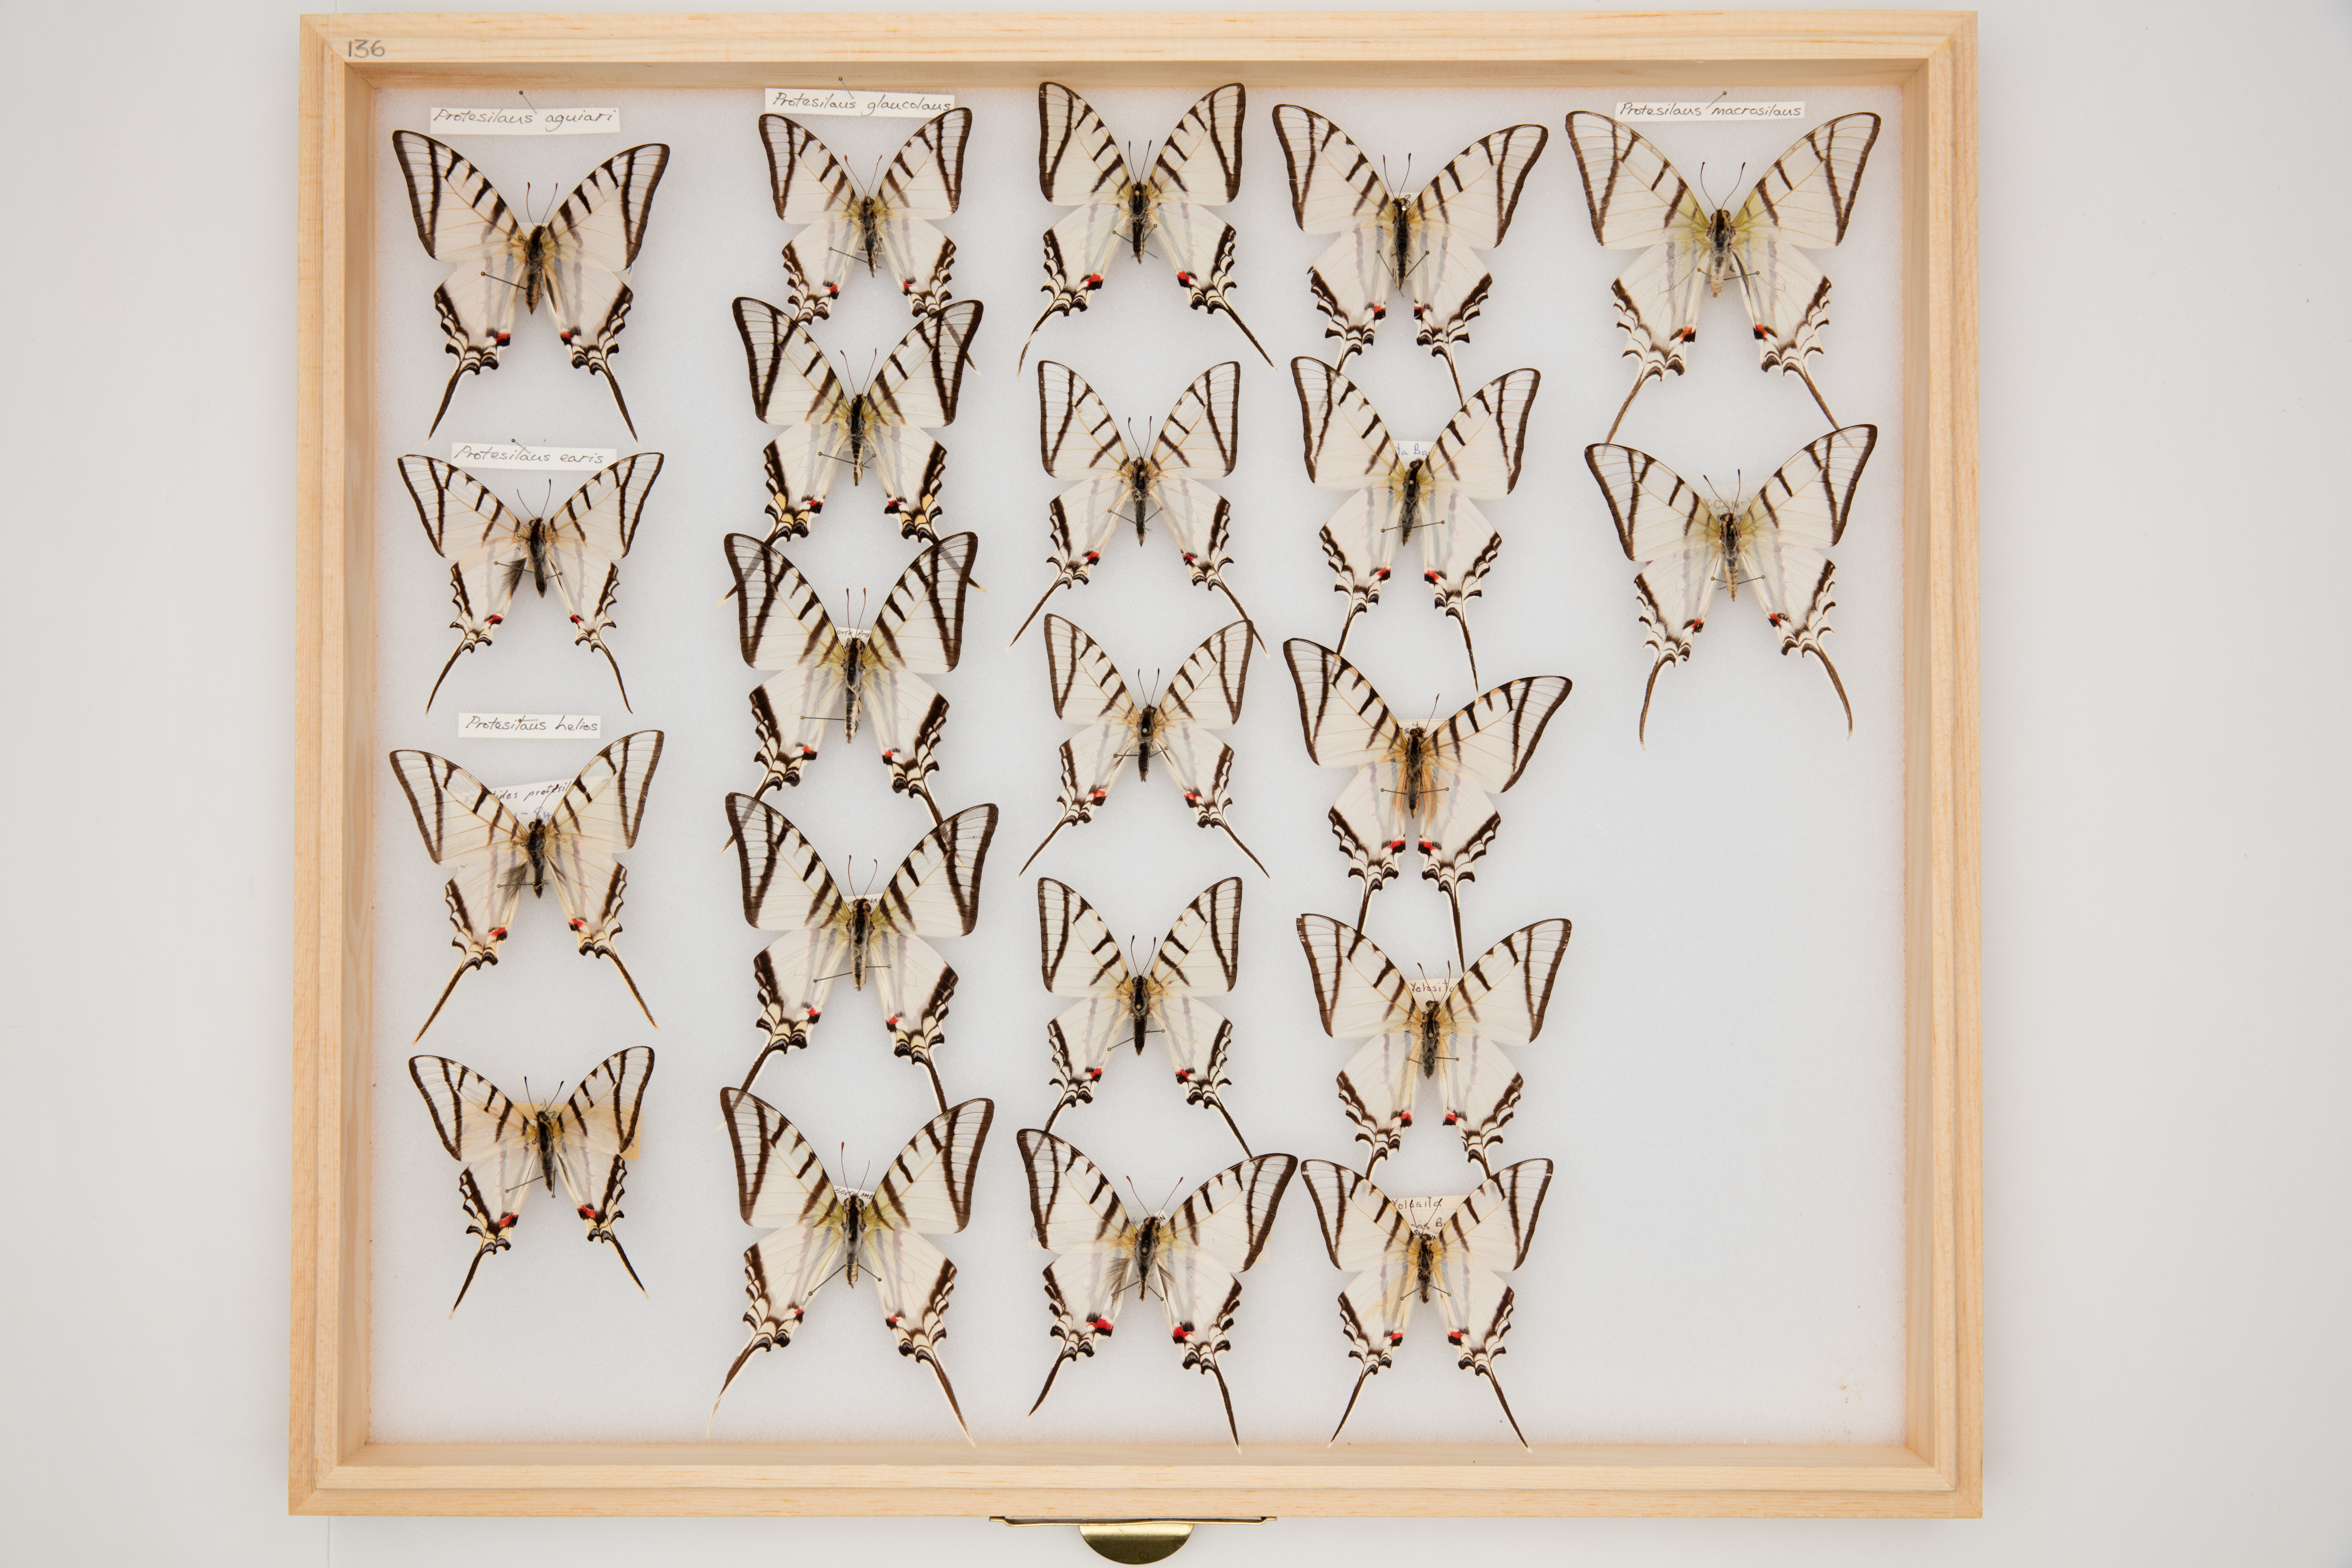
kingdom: Animalia
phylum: Arthropoda
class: Insecta
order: Lepidoptera
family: Papilionidae
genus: Protesilaus
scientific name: Protesilaus glaucolaus
